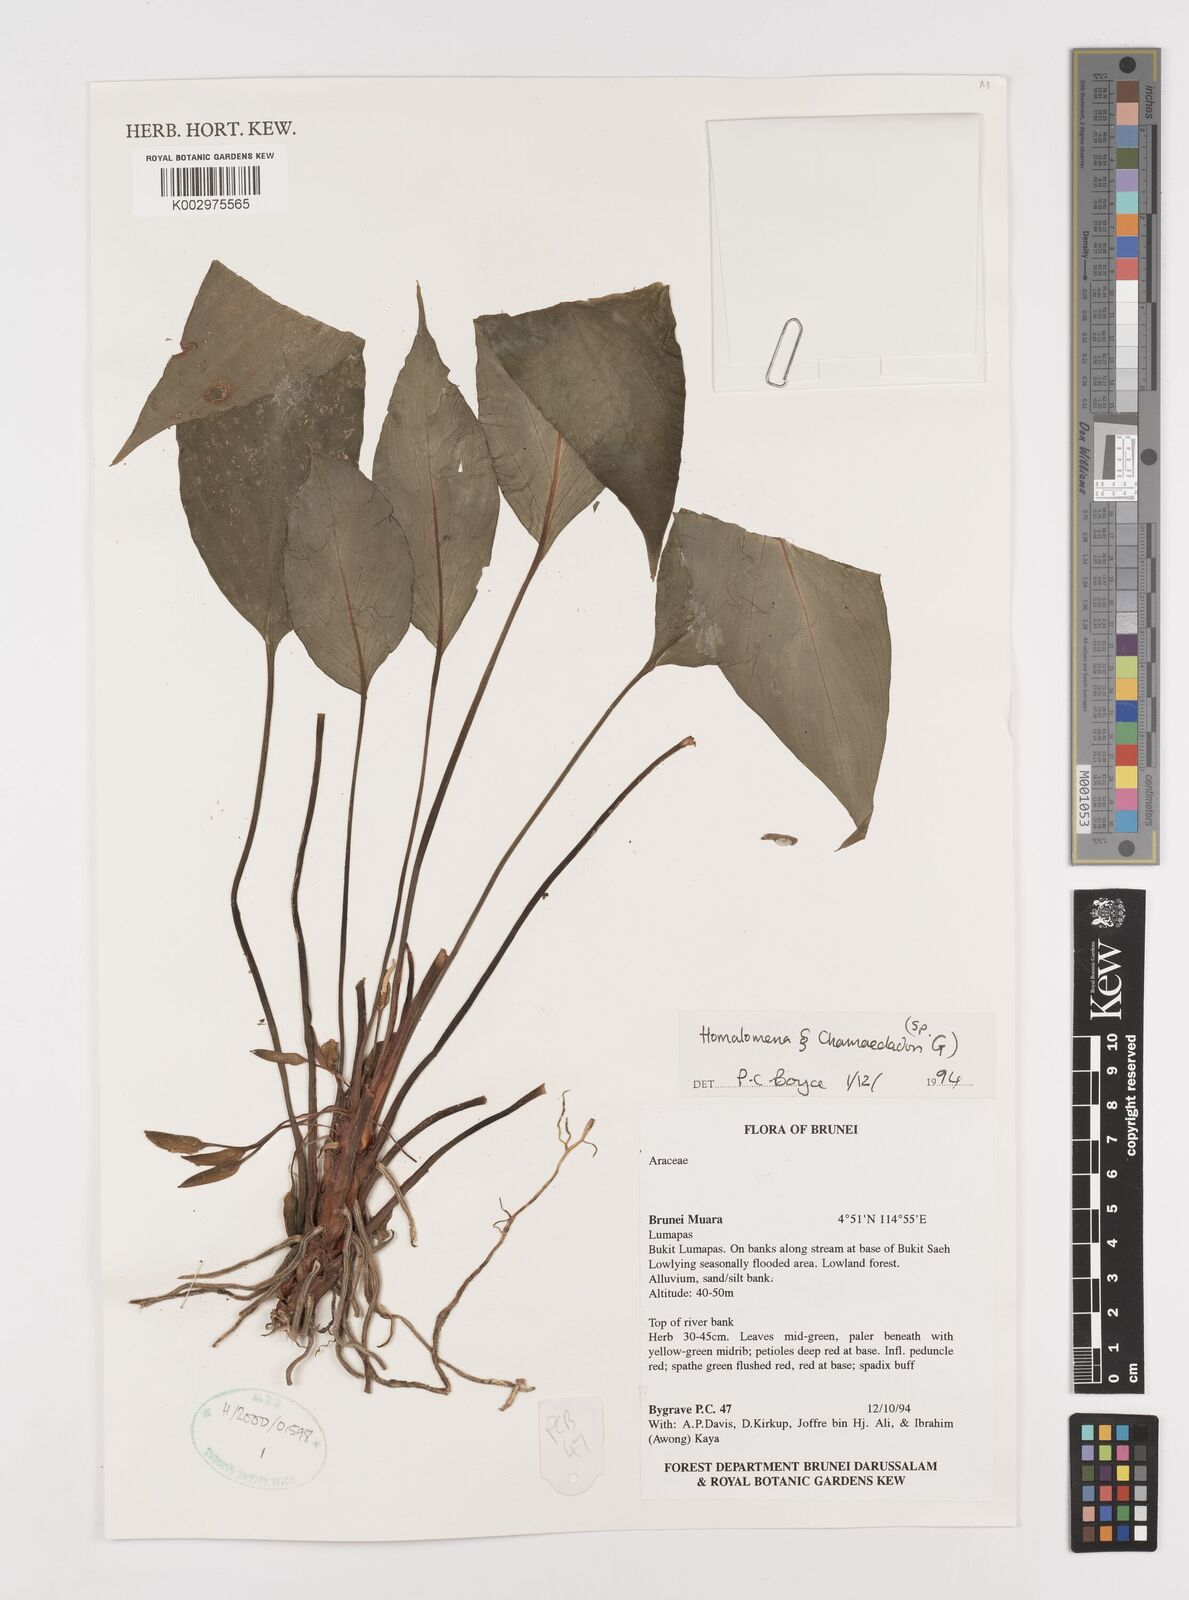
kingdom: Plantae
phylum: Tracheophyta
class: Liliopsida
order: Alismatales
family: Araceae
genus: Homalomena
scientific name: Homalomena
